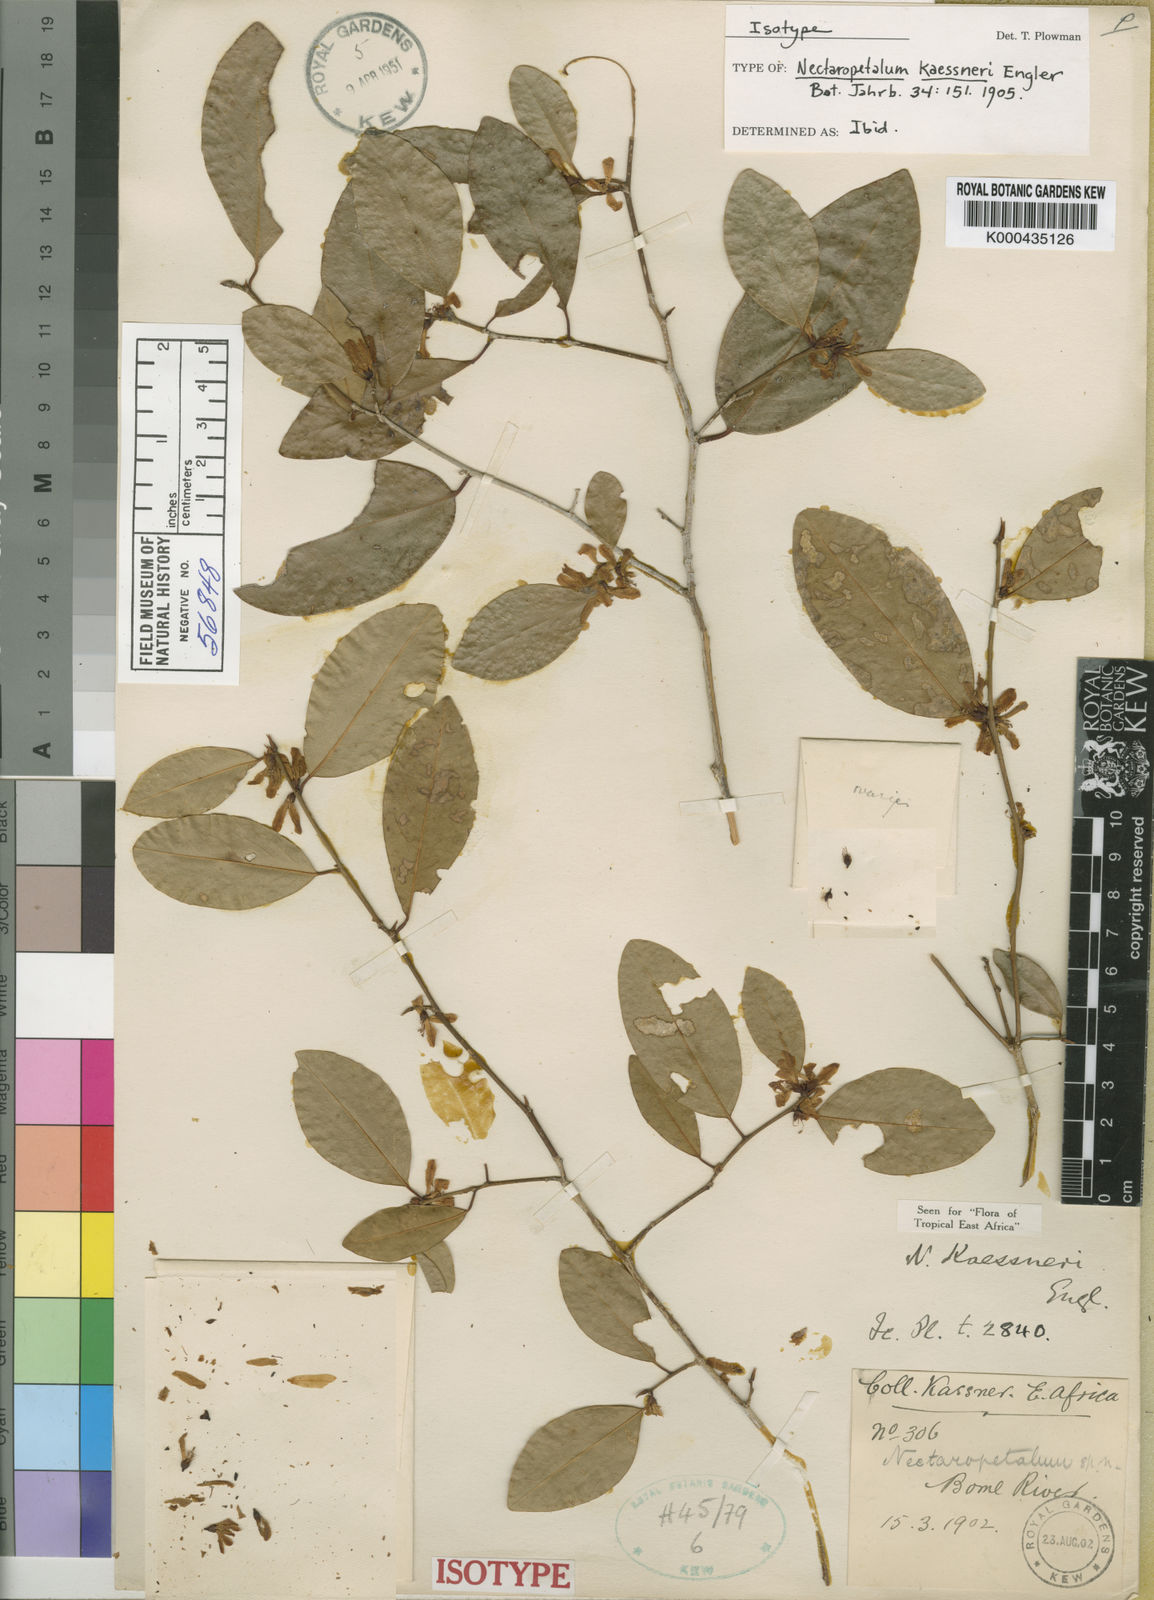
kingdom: Plantae
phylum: Tracheophyta
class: Magnoliopsida
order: Malpighiales
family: Erythroxylaceae
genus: Nectaropetalum
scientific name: Nectaropetalum kaessneri
